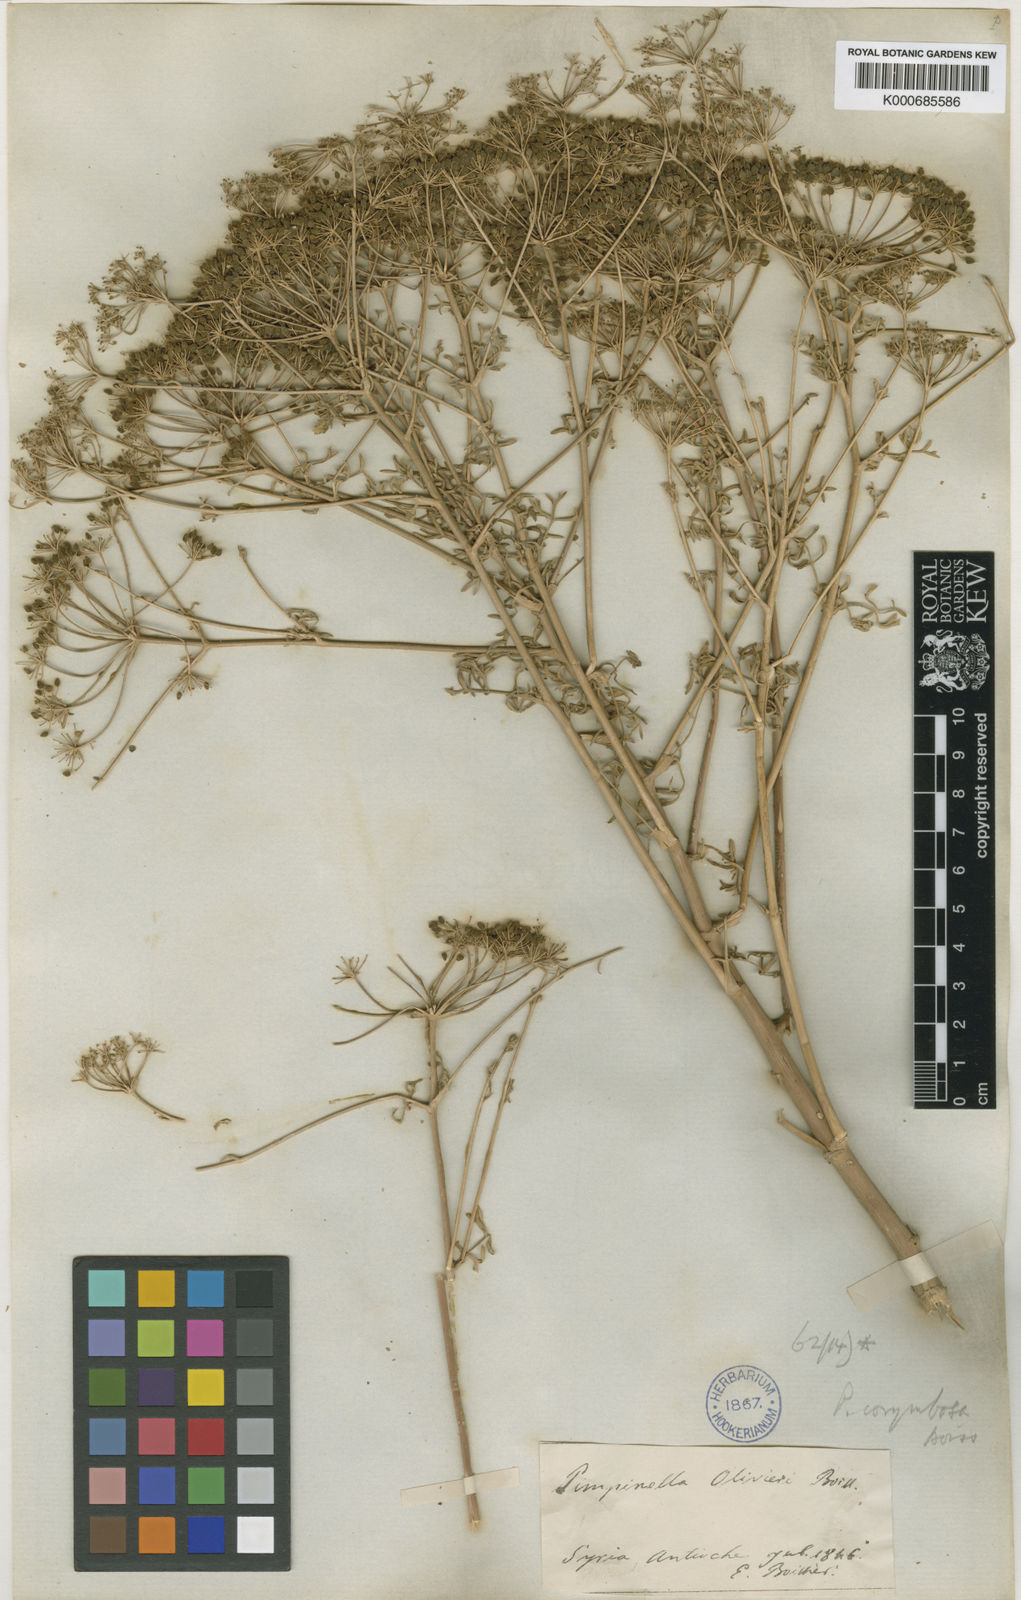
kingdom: Plantae
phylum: Tracheophyta
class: Magnoliopsida
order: Apiales
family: Apiaceae
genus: Pimpinella
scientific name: Pimpinella corymbosa
